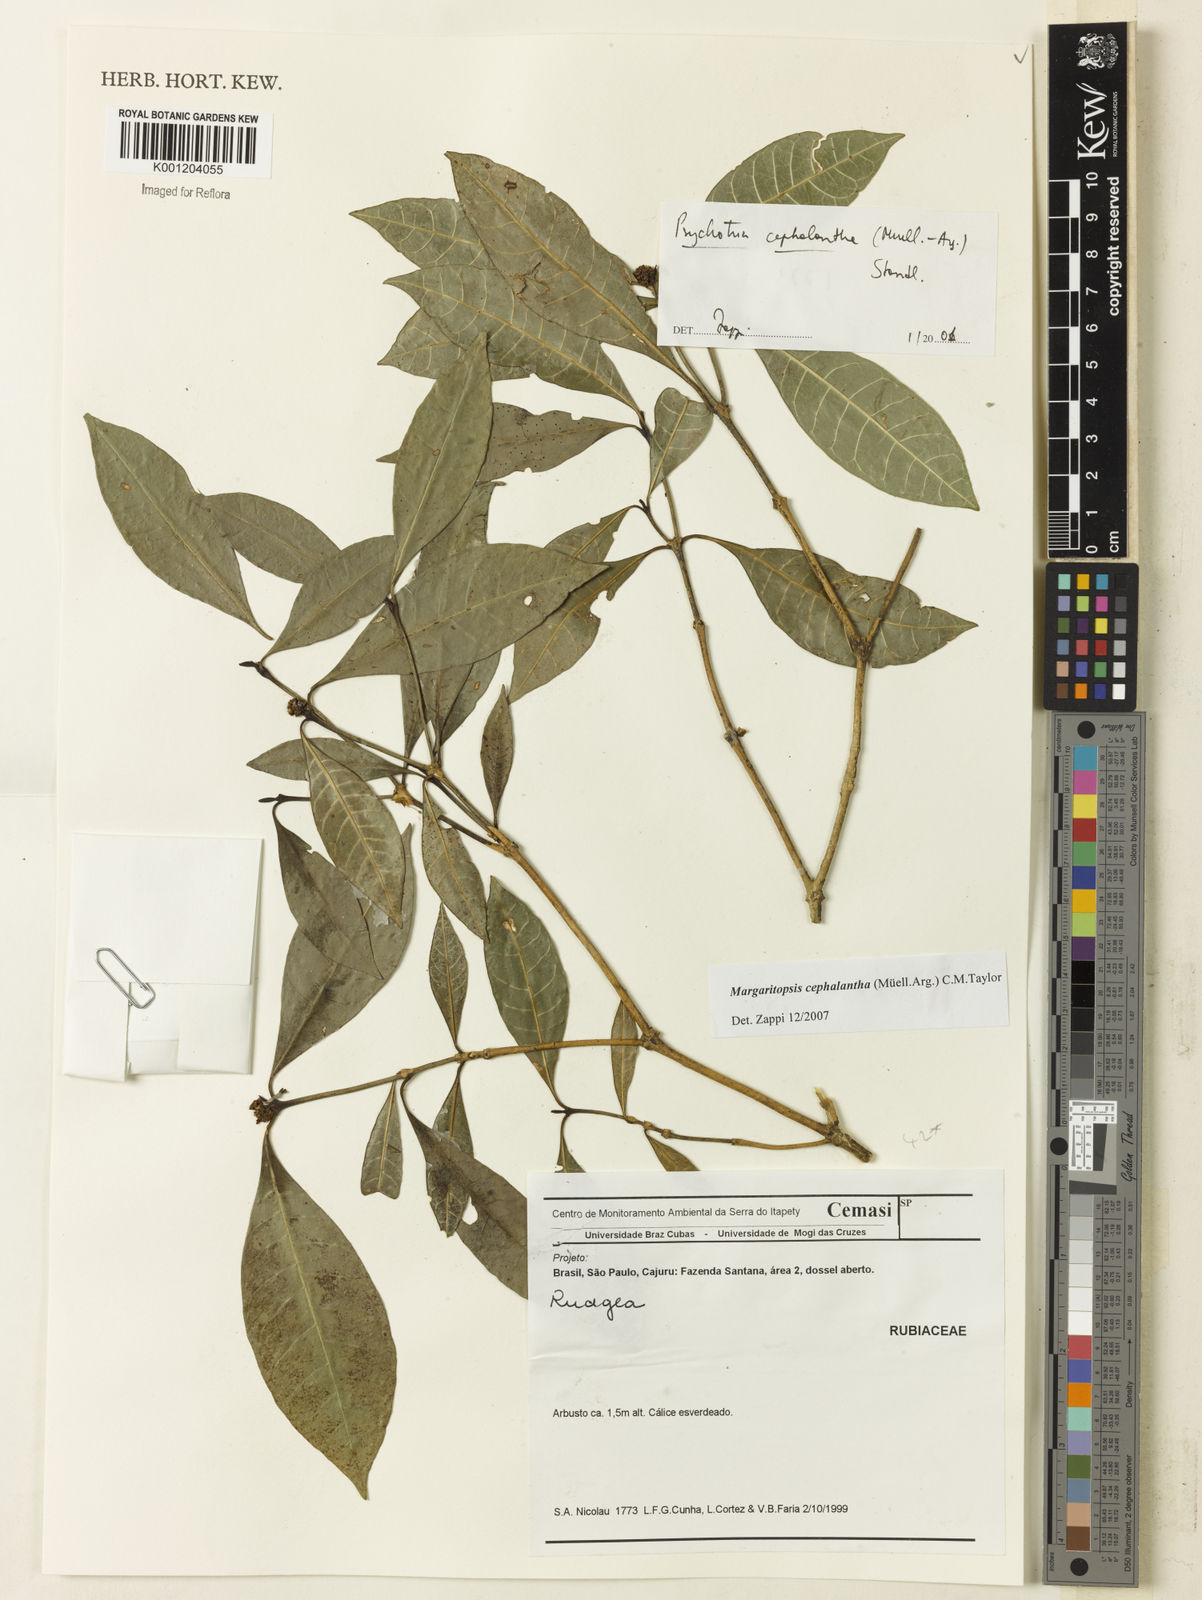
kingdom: Plantae
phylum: Tracheophyta
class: Magnoliopsida
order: Gentianales
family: Rubiaceae
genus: Eumachia
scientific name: Eumachia
